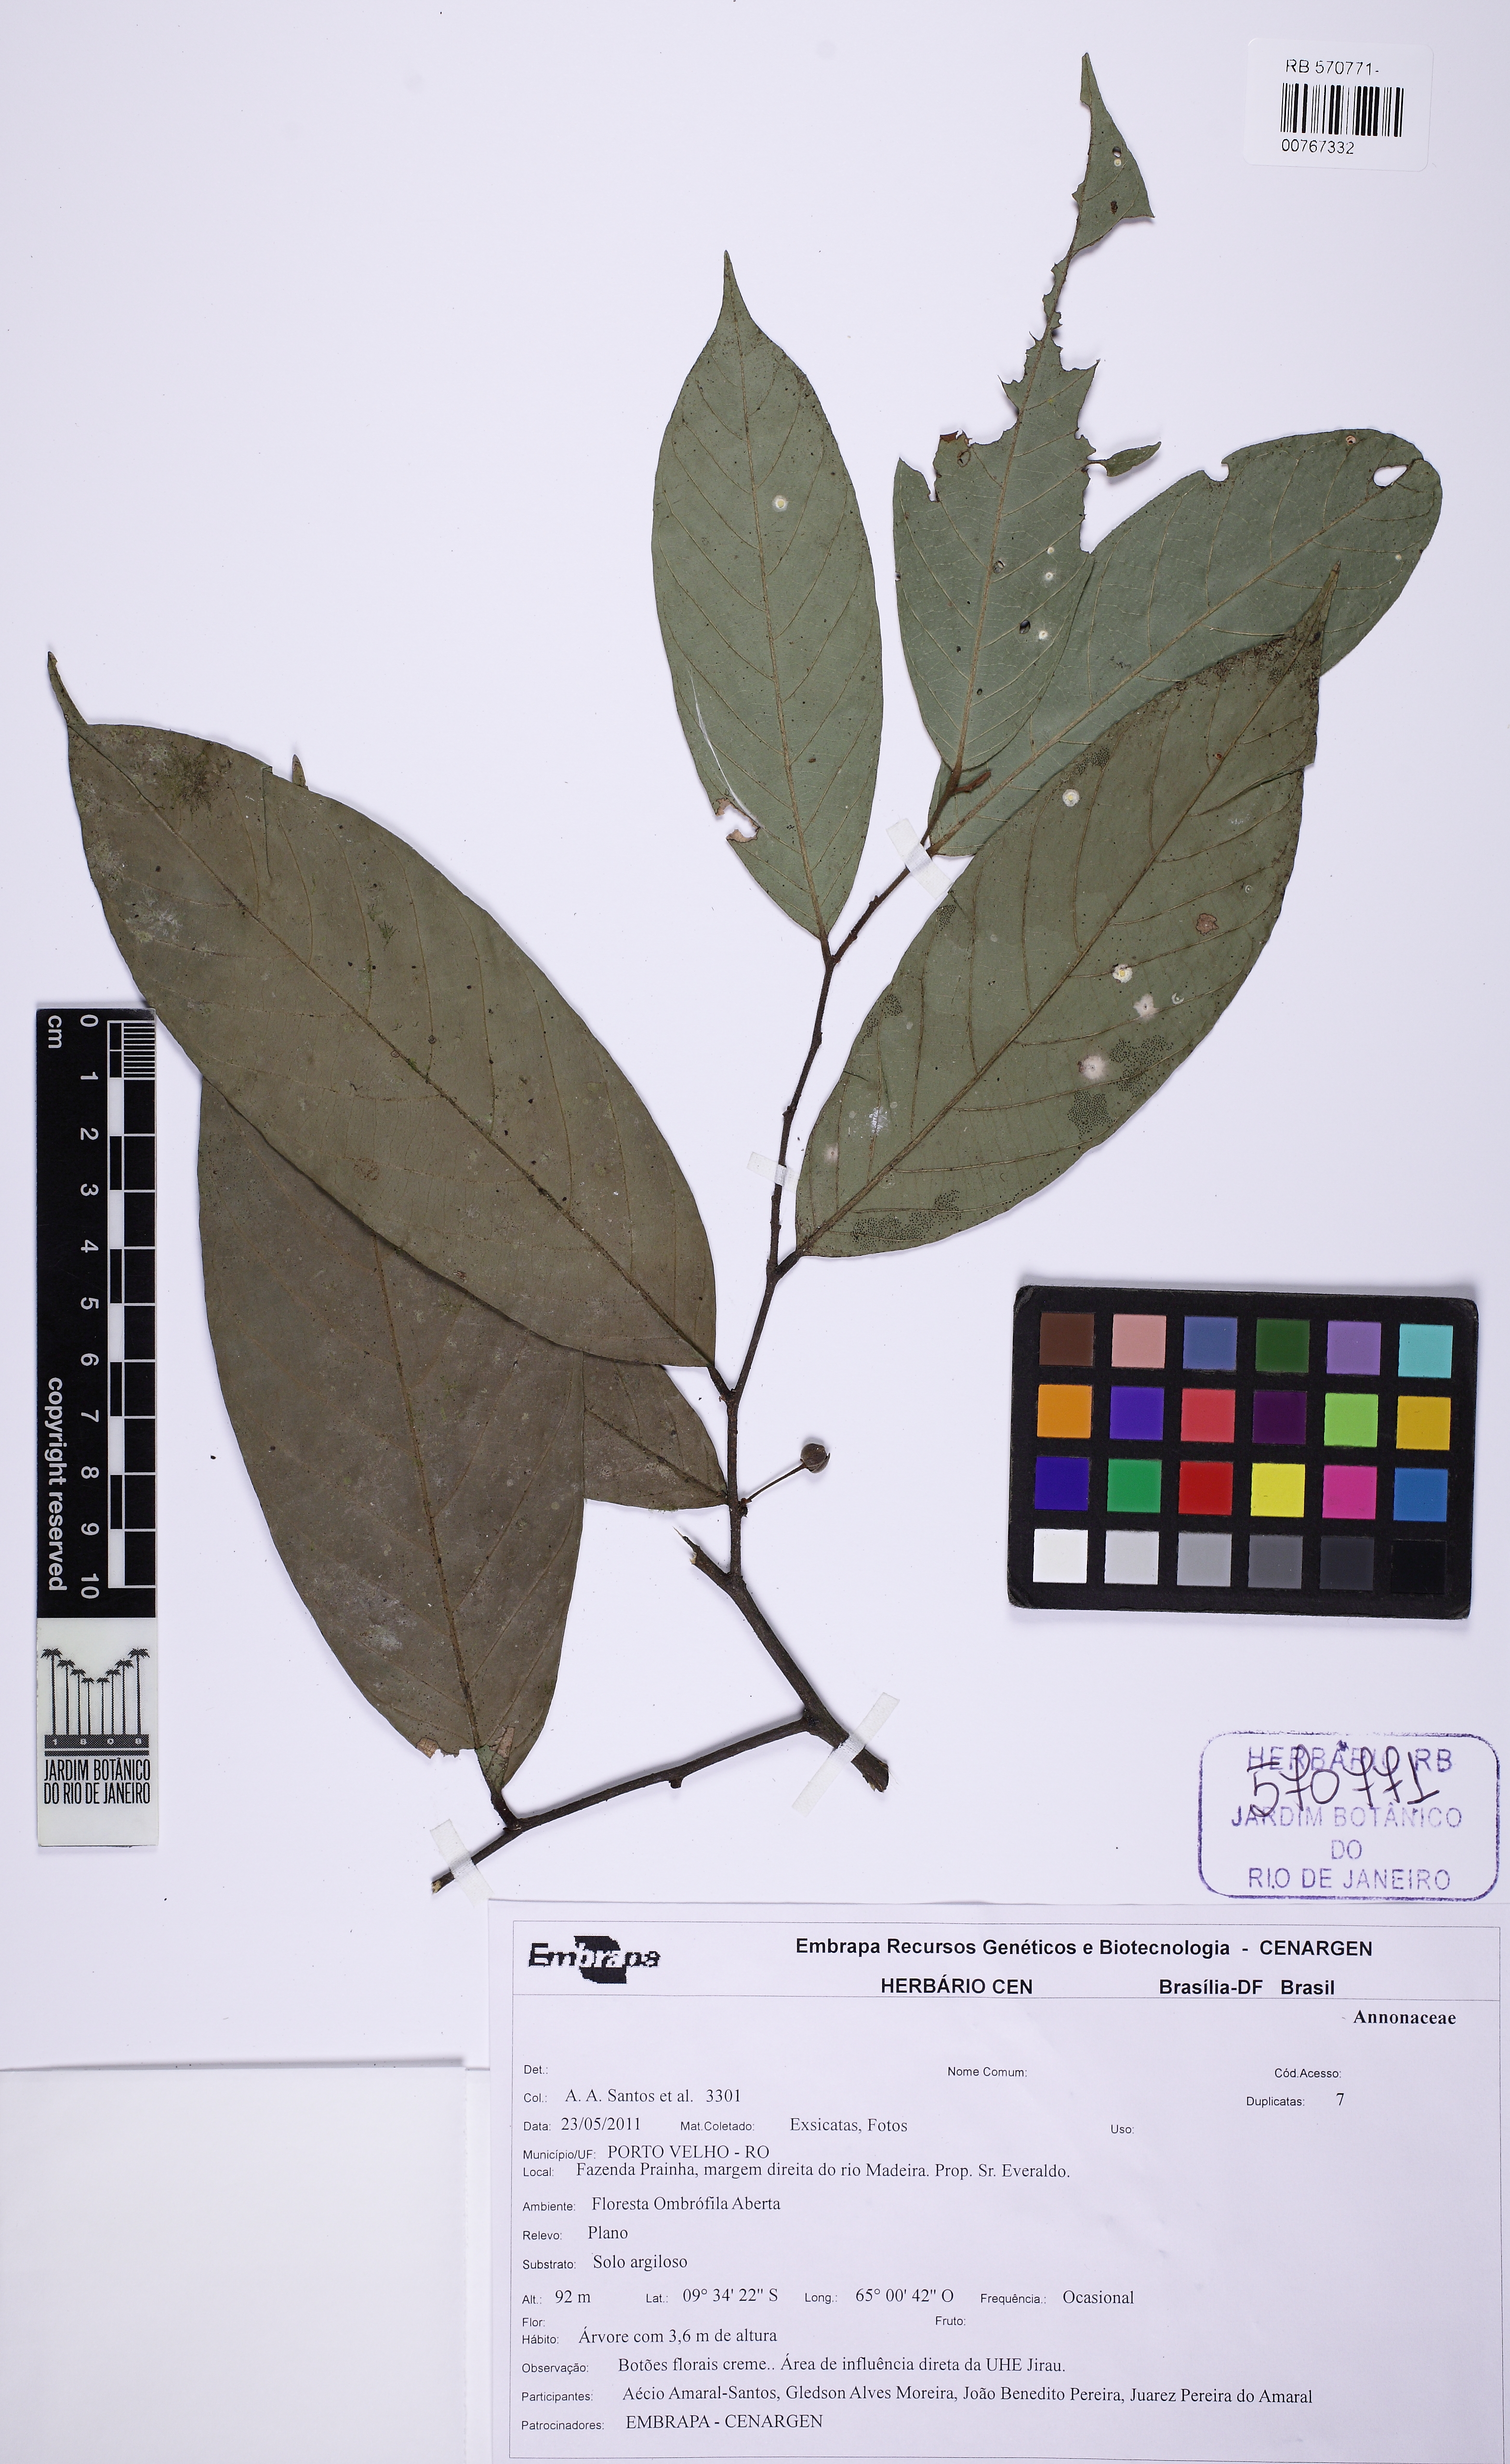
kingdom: Plantae
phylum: Tracheophyta
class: Magnoliopsida
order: Magnoliales
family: Annonaceae
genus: Unonopsis
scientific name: Unonopsis guatterioides
